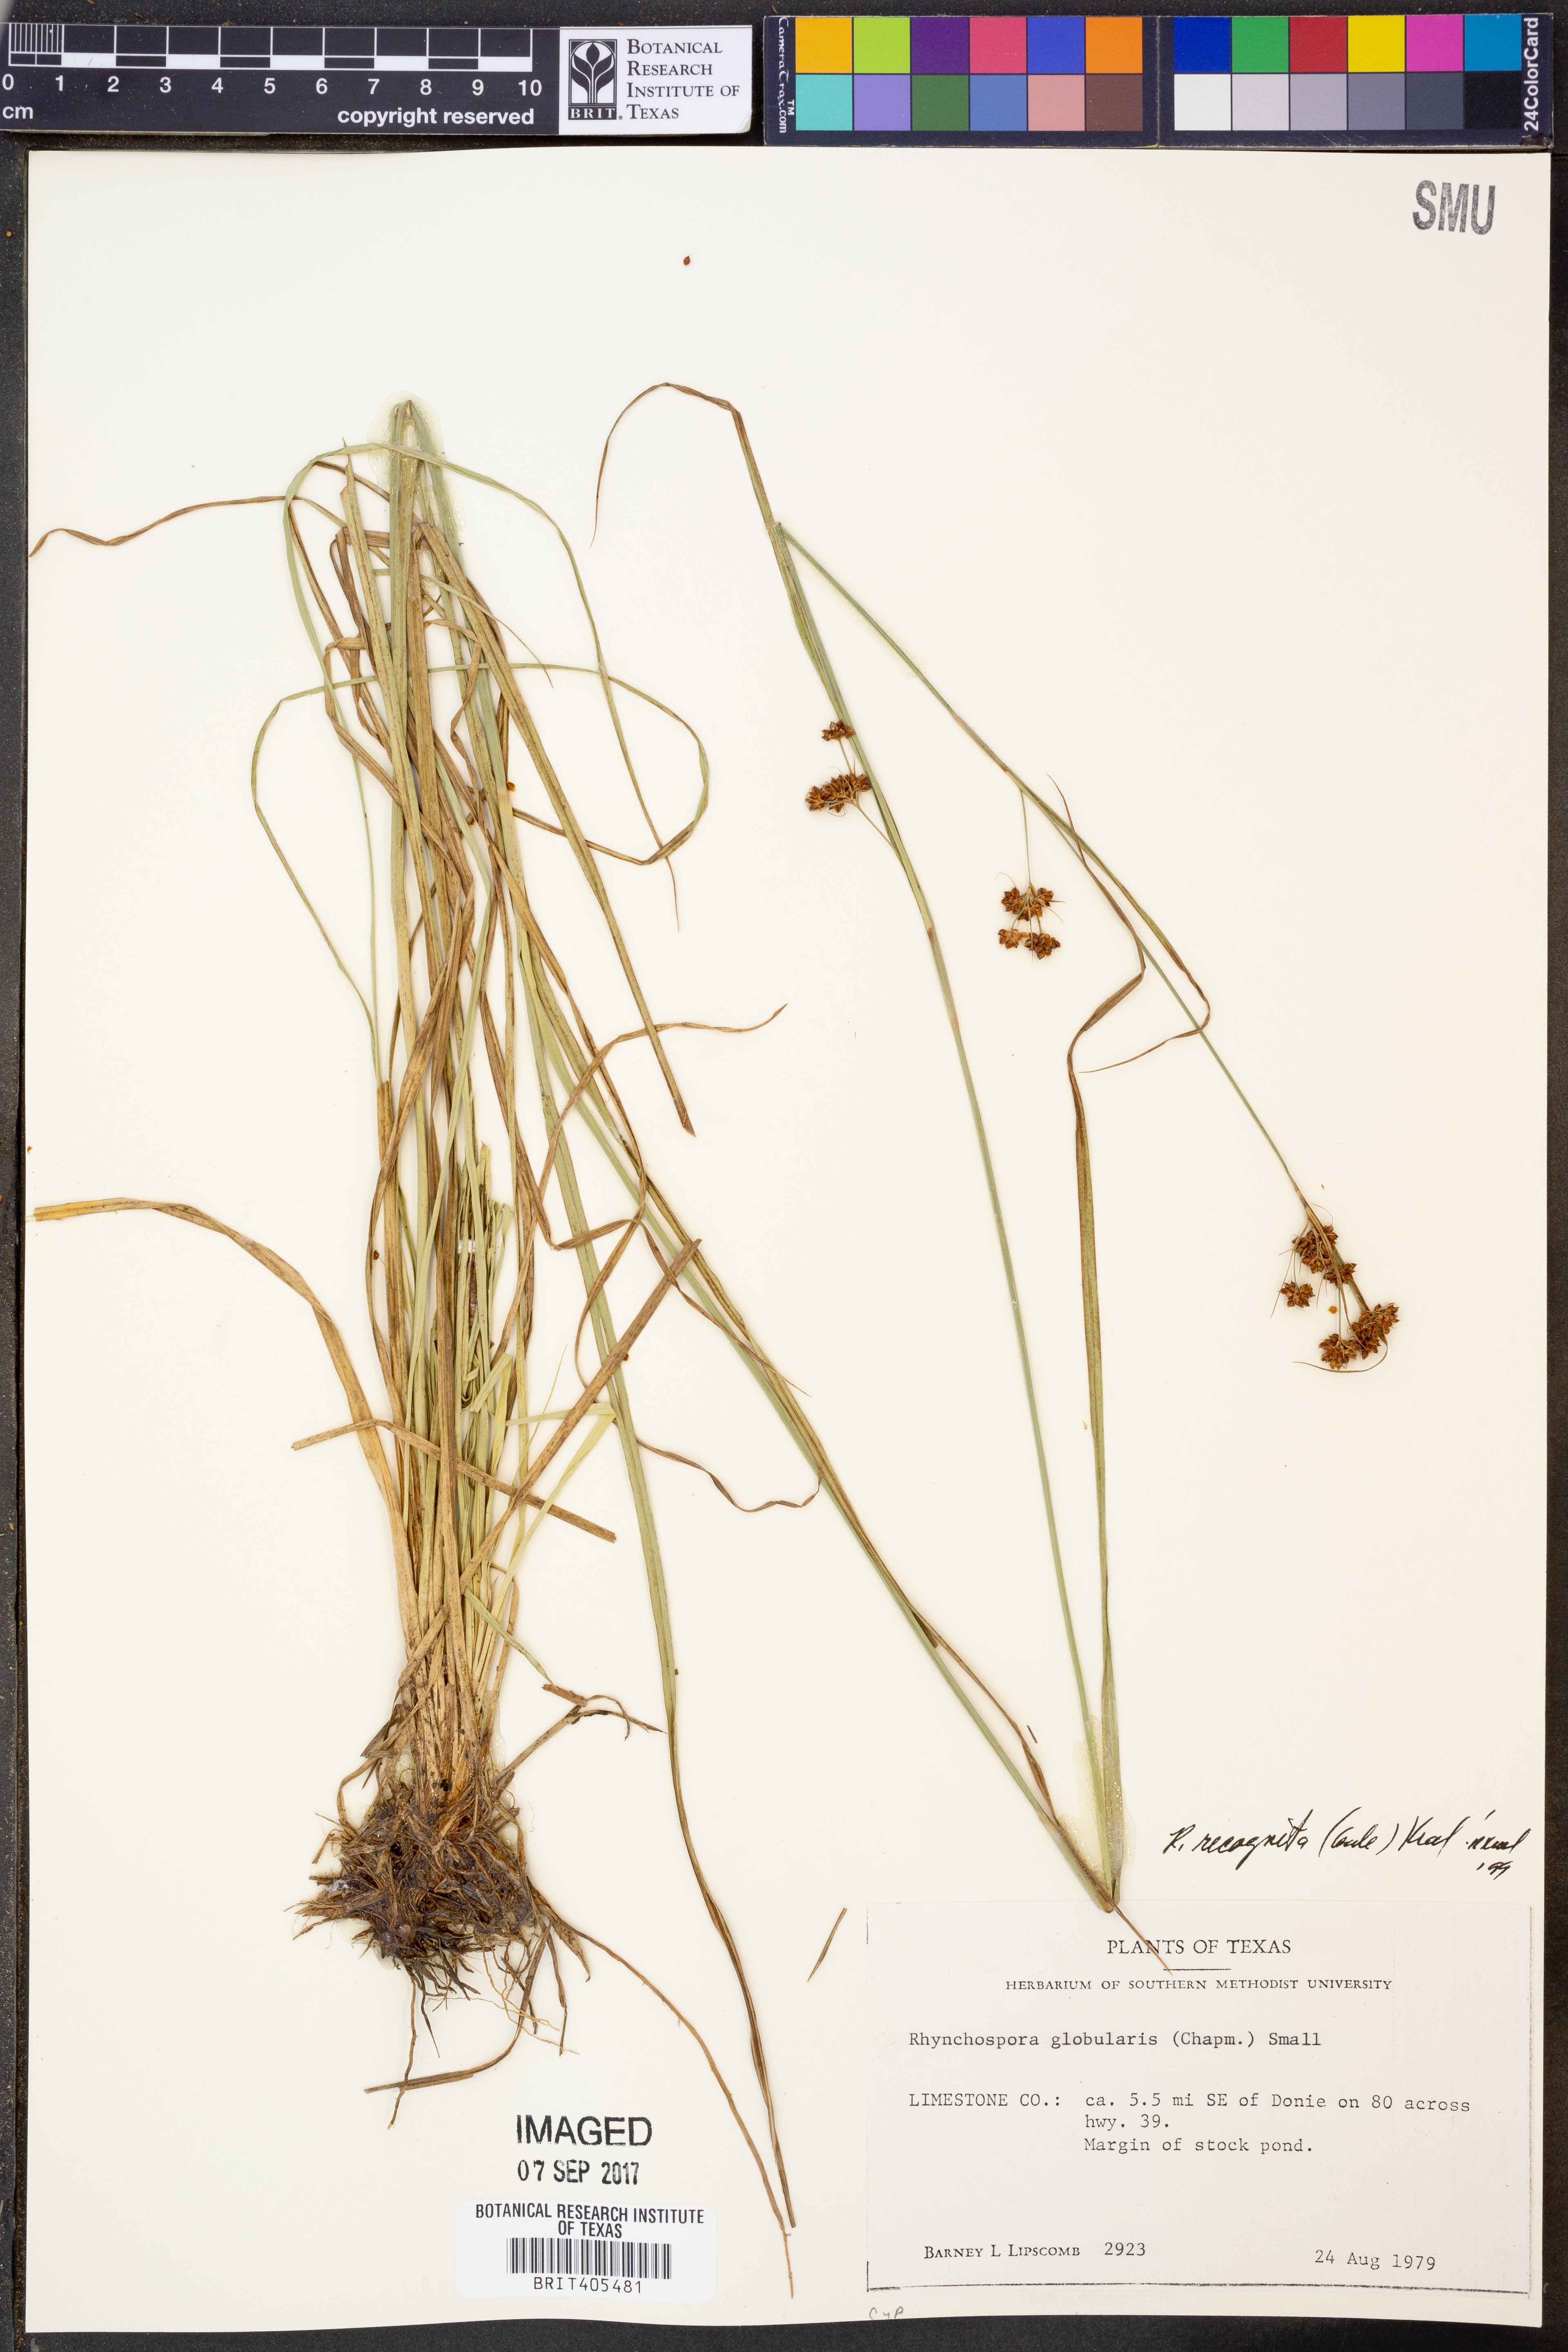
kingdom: Plantae
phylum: Tracheophyta
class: Liliopsida
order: Poales
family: Cyperaceae
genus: Rhynchospora
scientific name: Rhynchospora recognita
